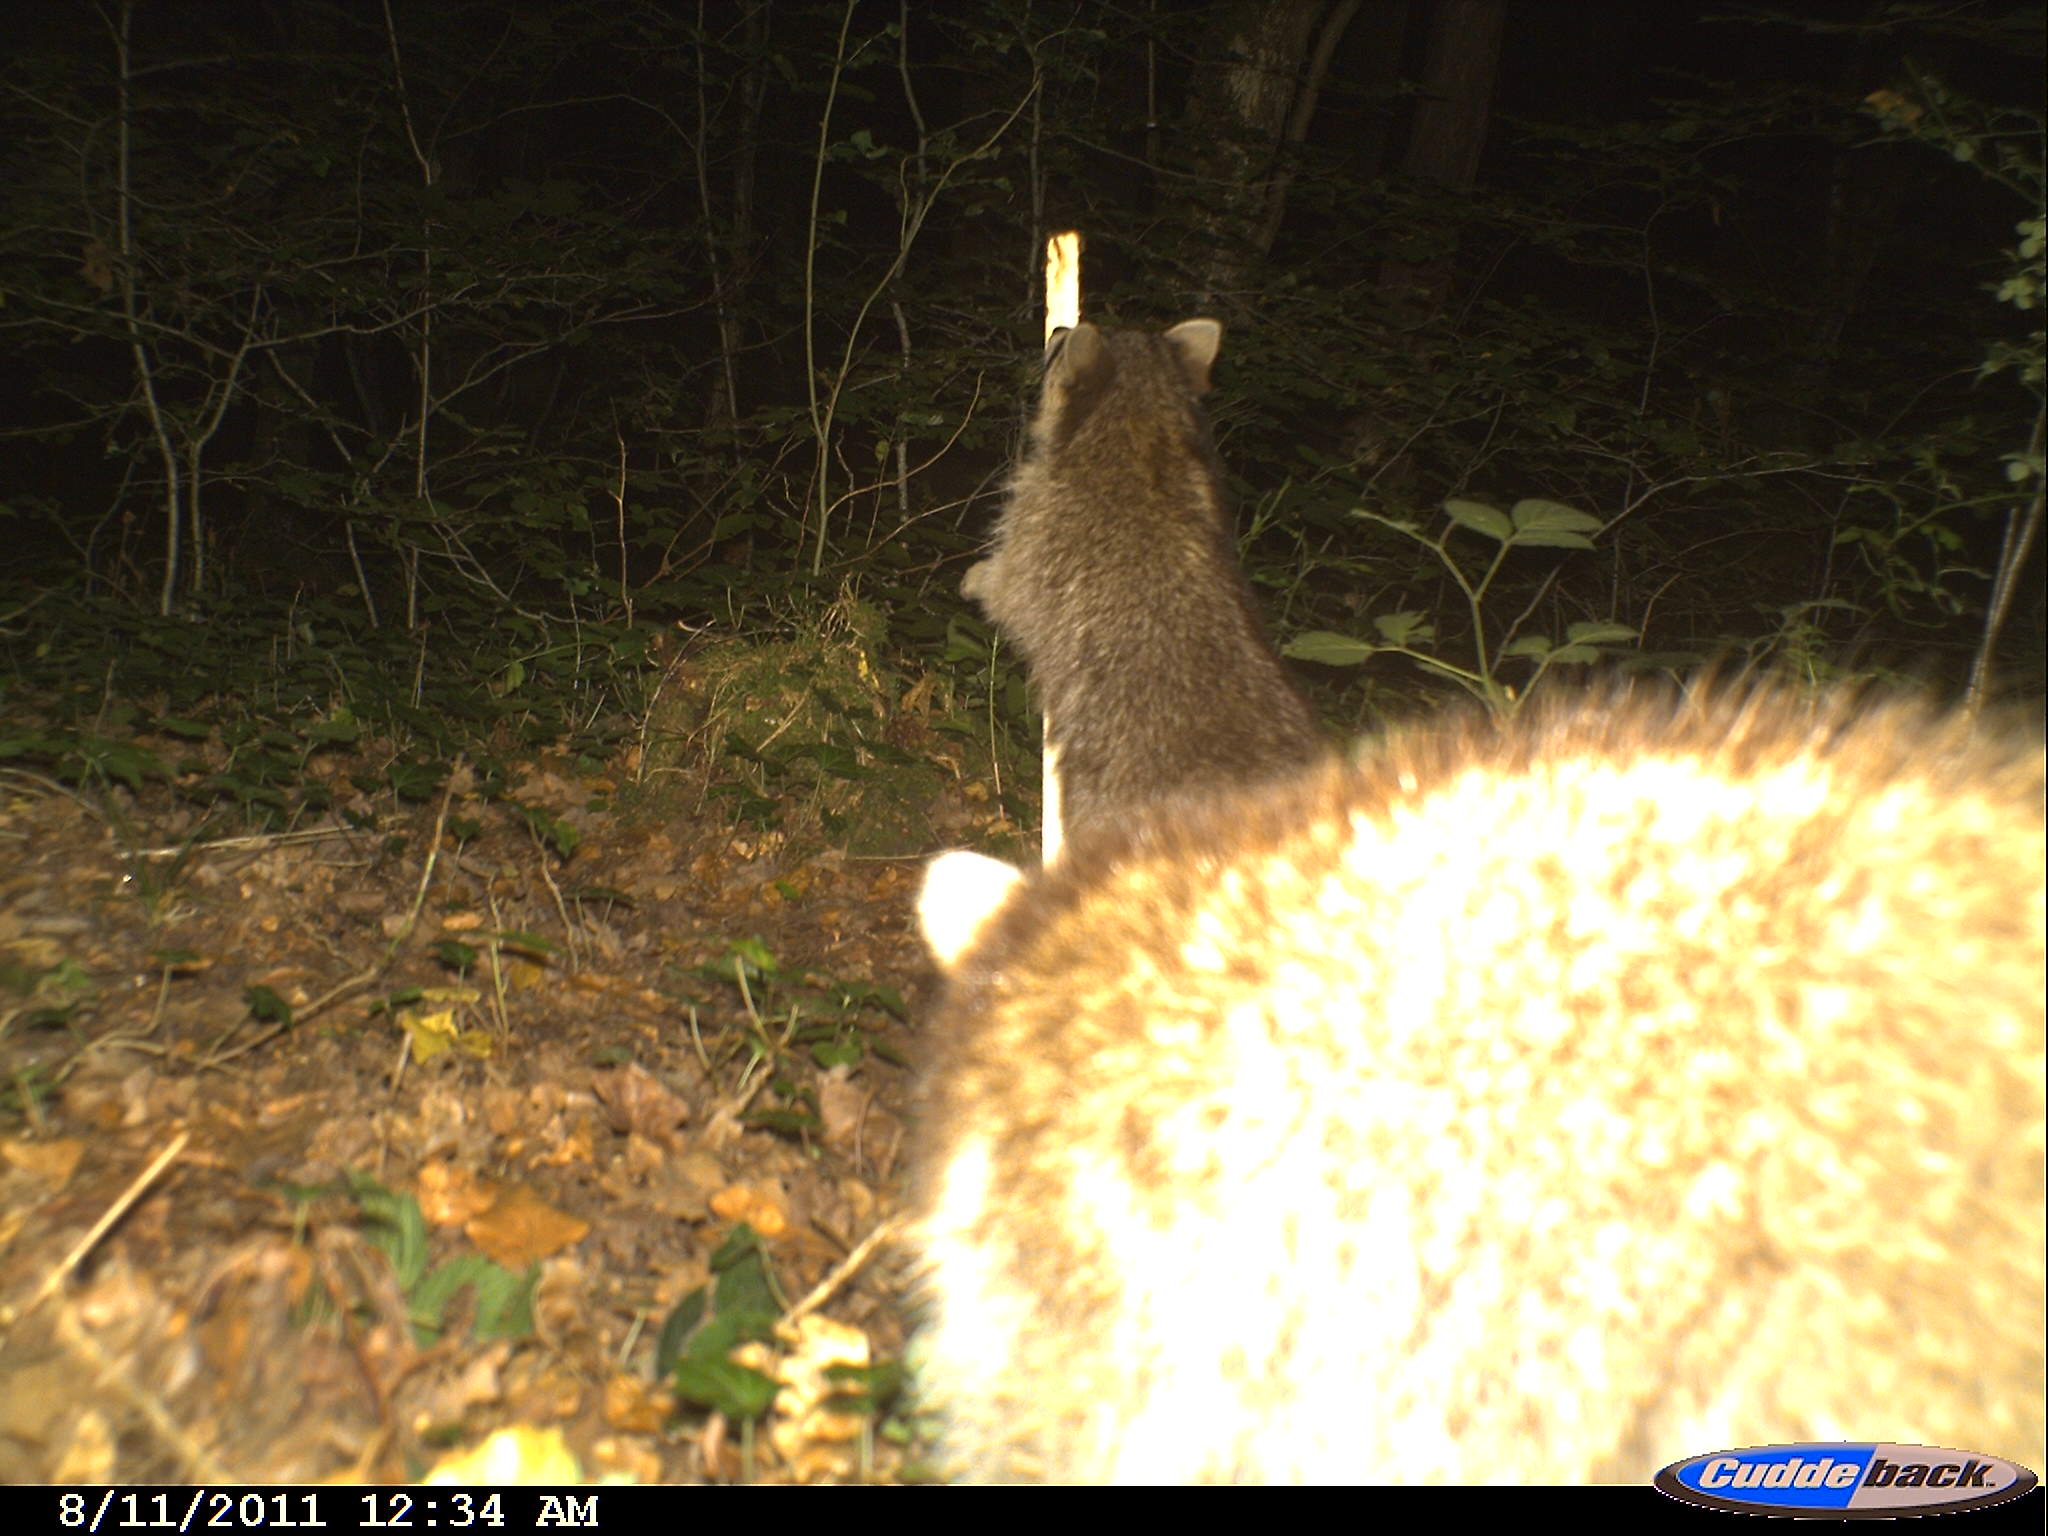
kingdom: Animalia
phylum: Chordata
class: Mammalia
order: Carnivora
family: Procyonidae
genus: Procyon
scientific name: Procyon lotor
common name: Raccoon
